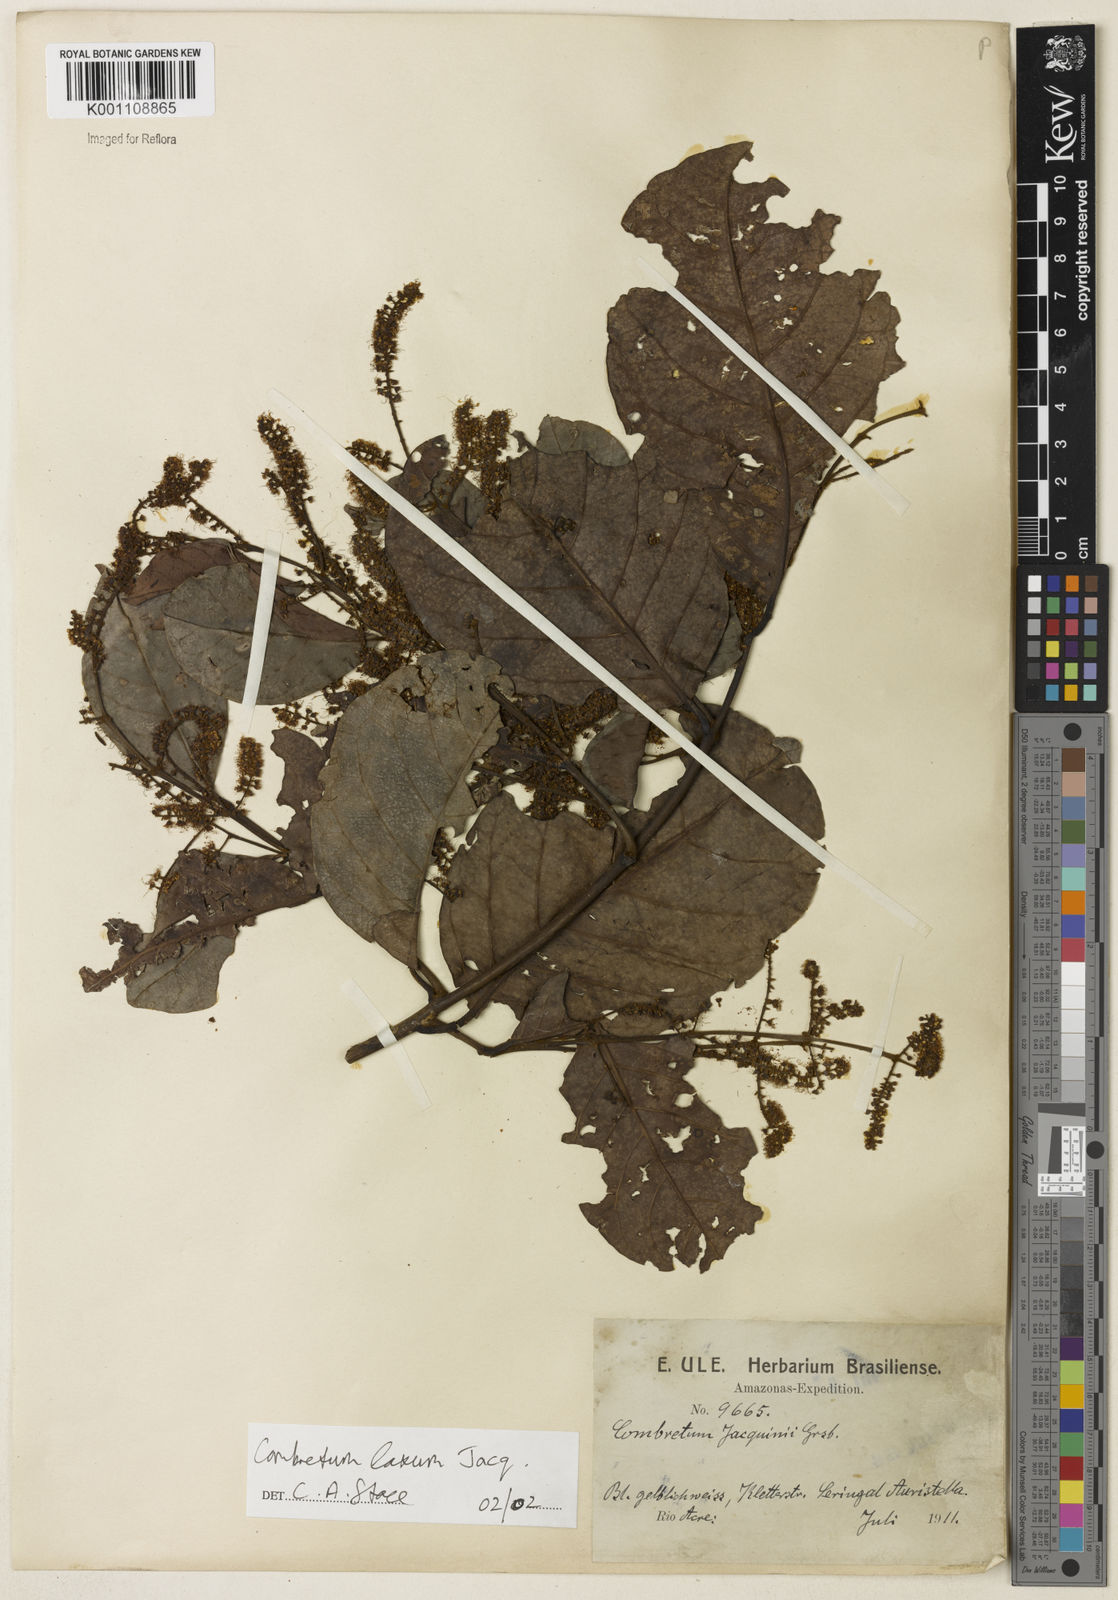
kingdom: Plantae
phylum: Tracheophyta
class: Magnoliopsida
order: Myrtales
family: Combretaceae
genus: Combretum
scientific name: Combretum laxum
